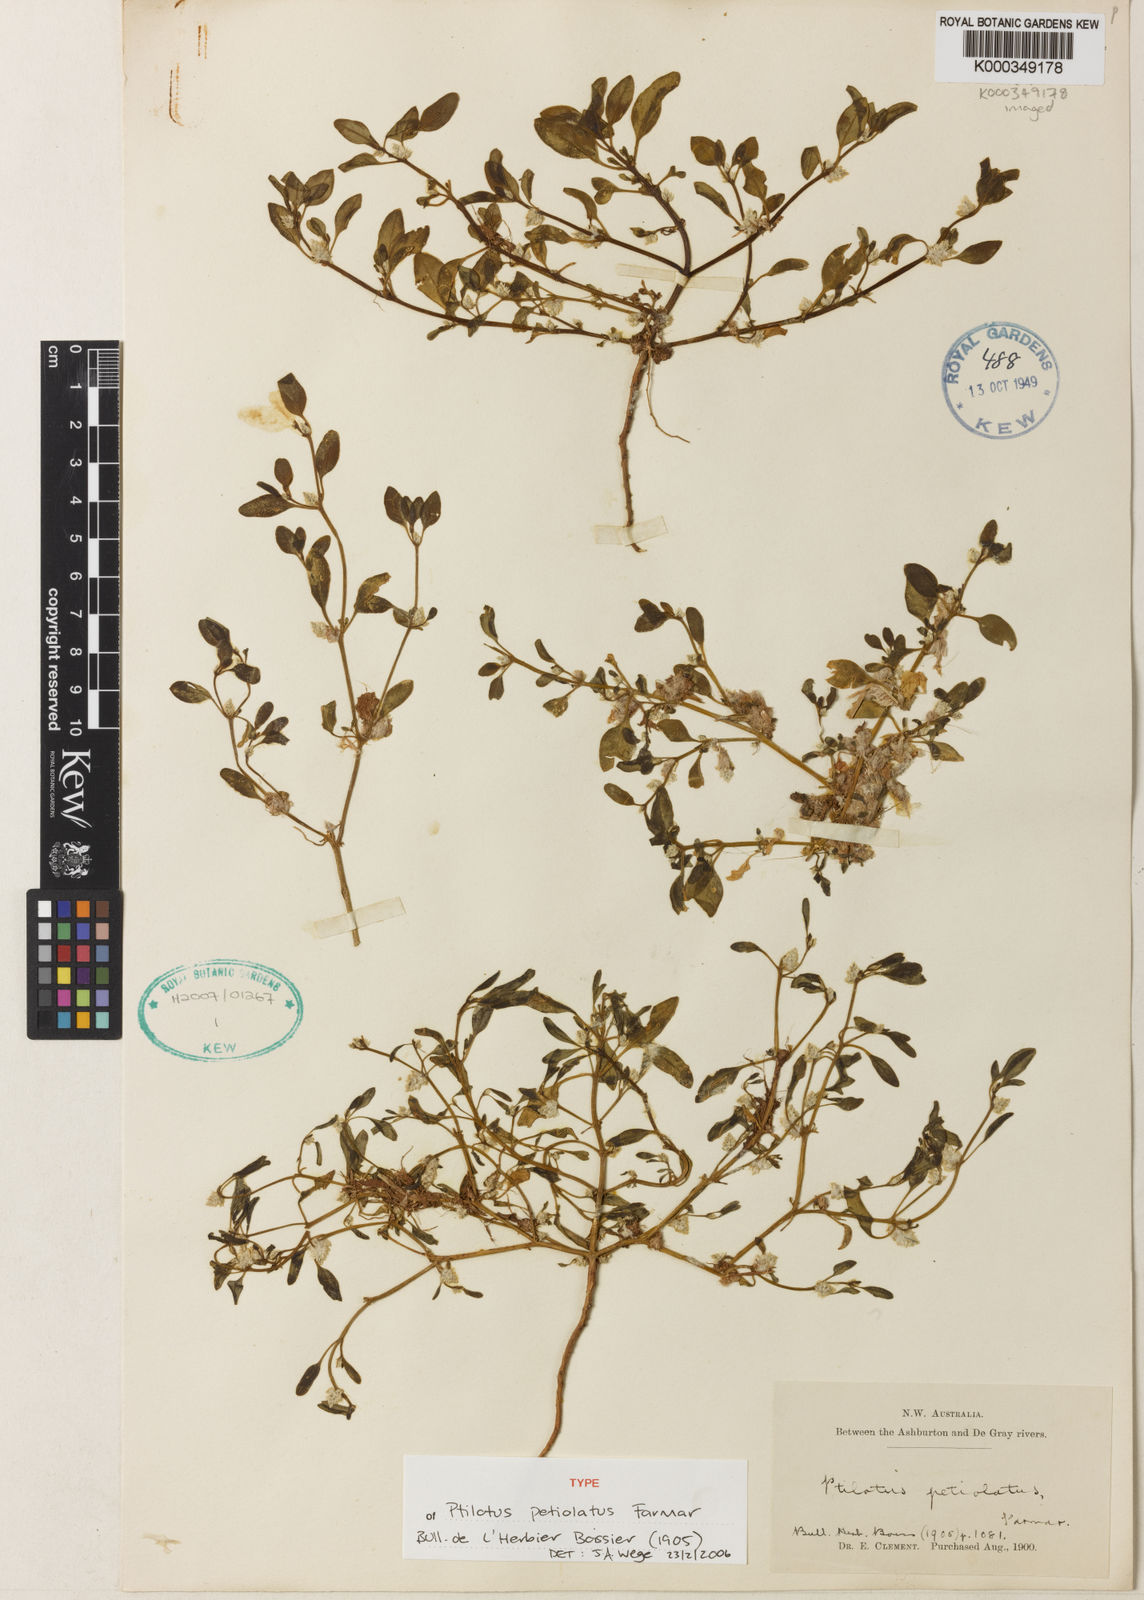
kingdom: Plantae
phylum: Tracheophyta
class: Magnoliopsida
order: Caryophyllales
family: Amaranthaceae
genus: Ptilotus
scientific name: Ptilotus murrayi
